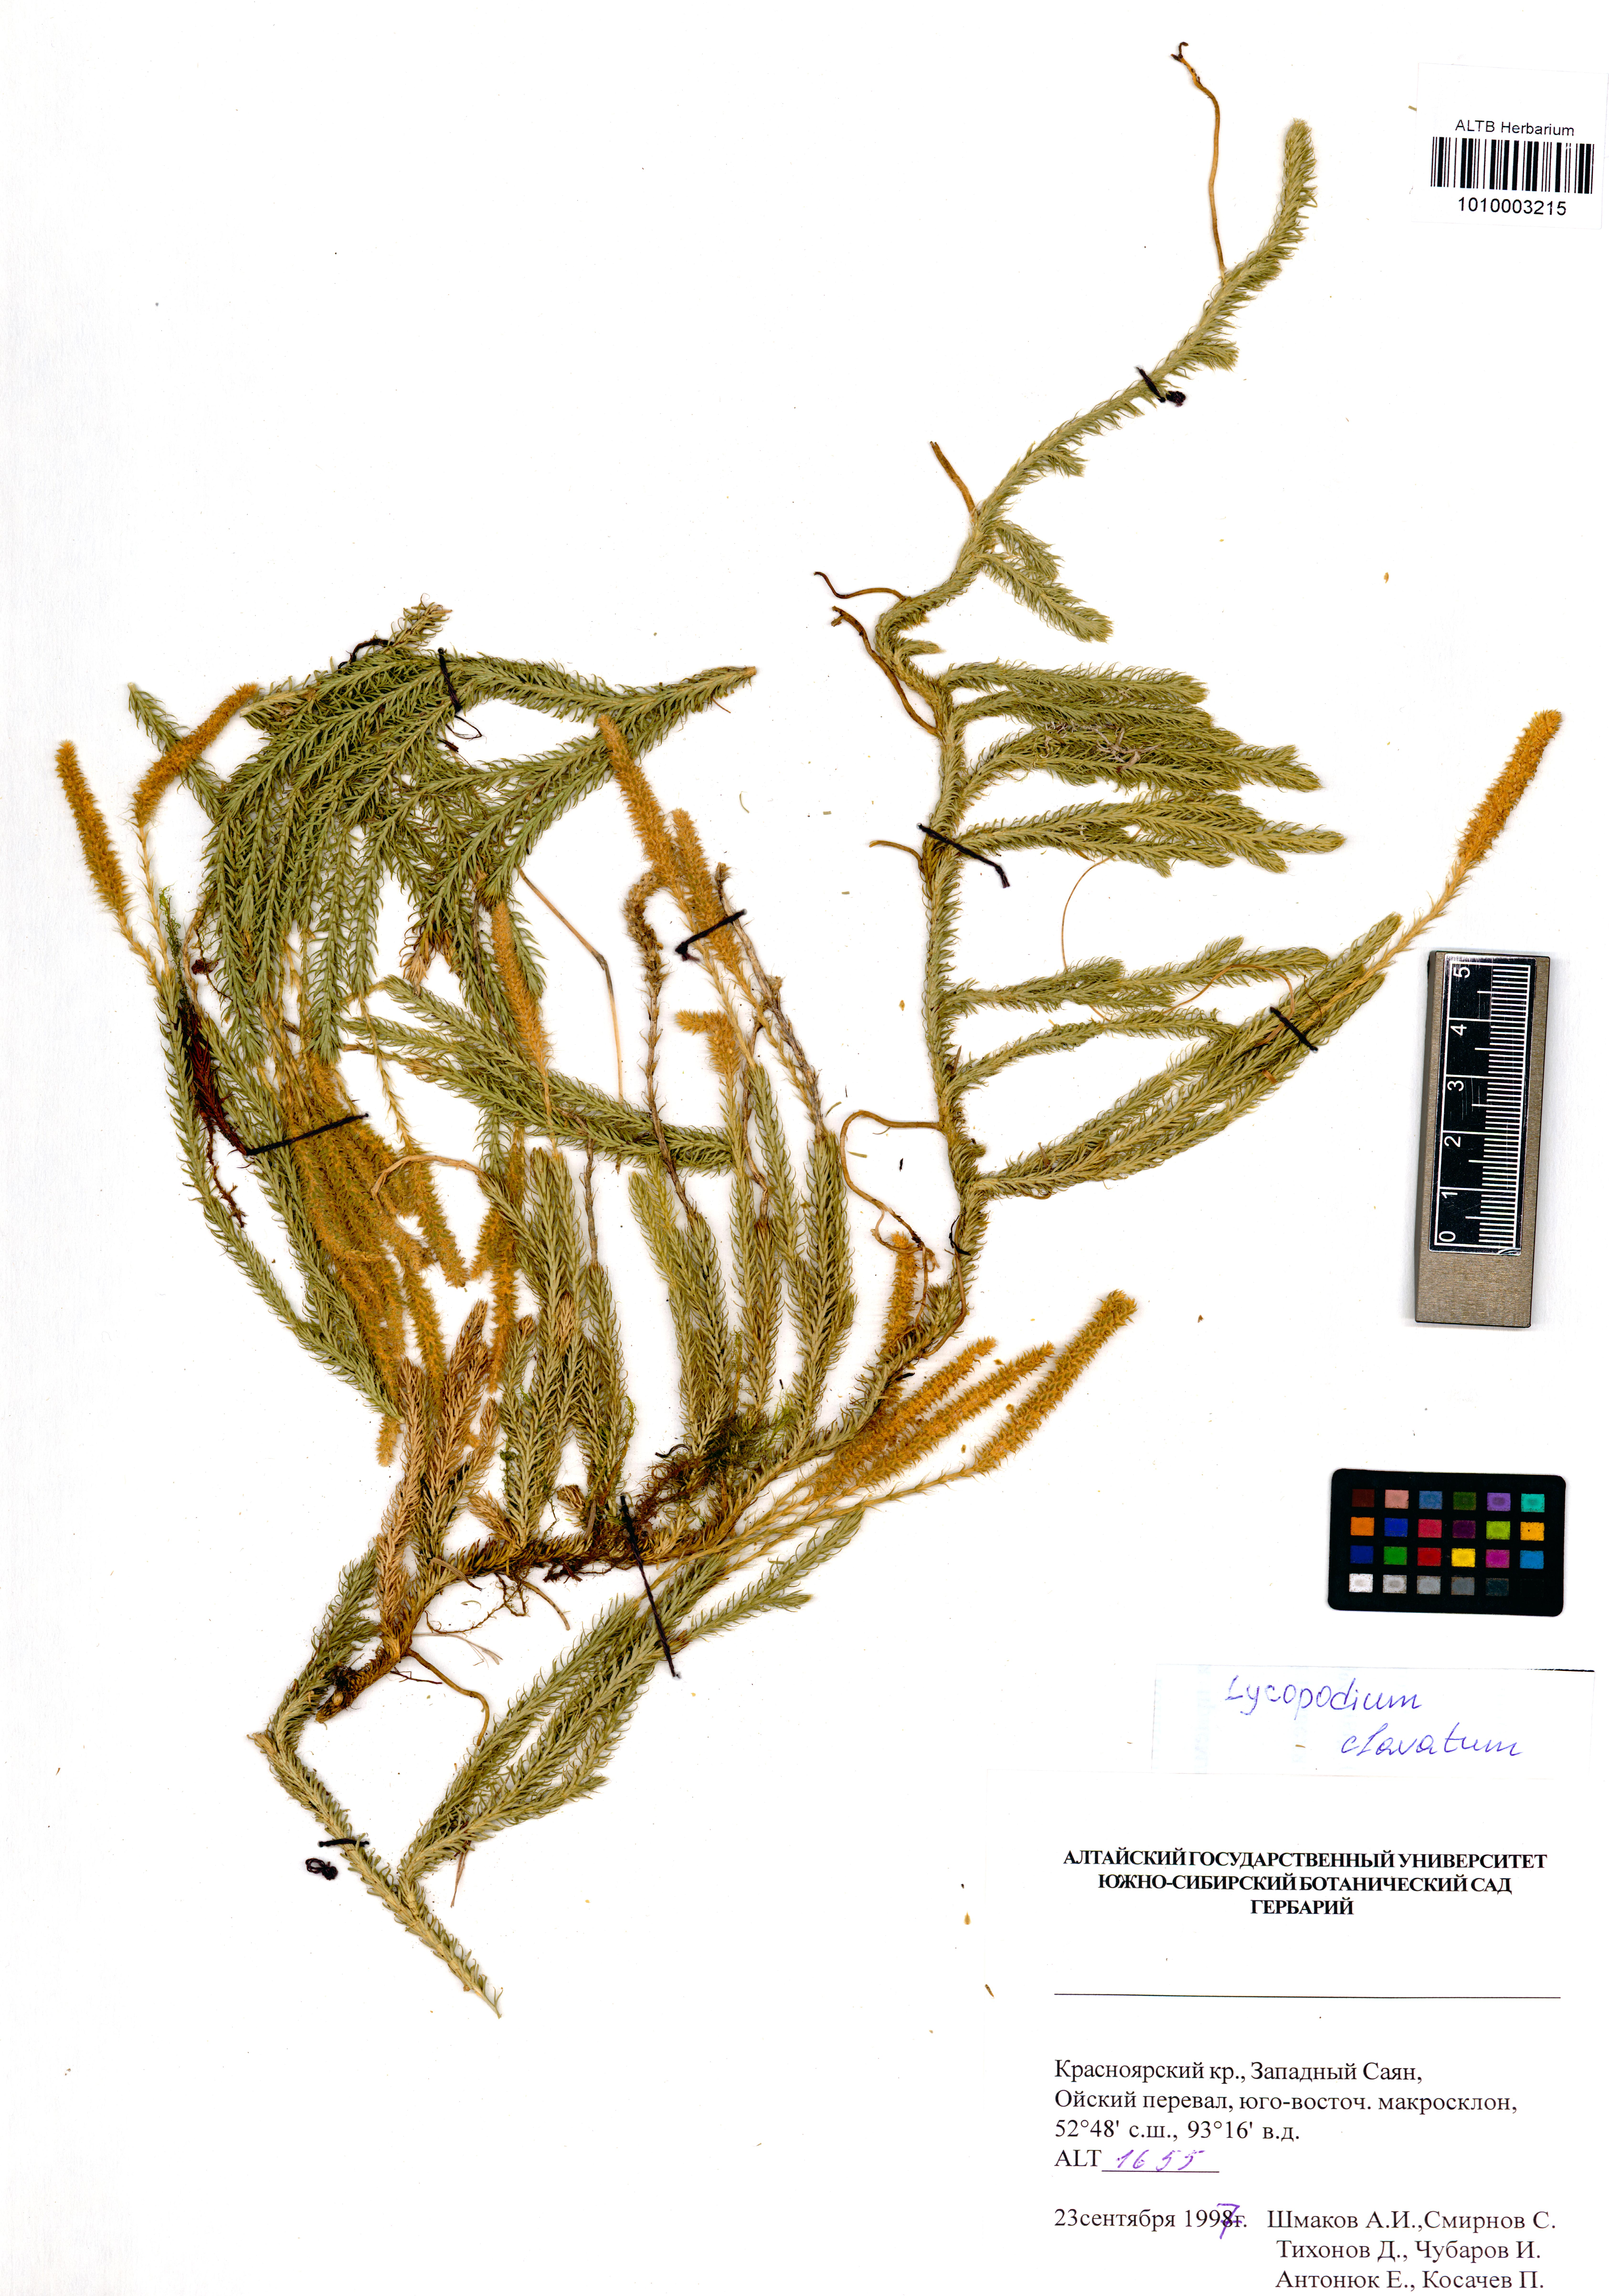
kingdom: Plantae
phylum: Tracheophyta
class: Lycopodiopsida
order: Lycopodiales
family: Lycopodiaceae
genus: Lycopodium
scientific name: Lycopodium clavatum
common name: Stag's-horn clubmoss
